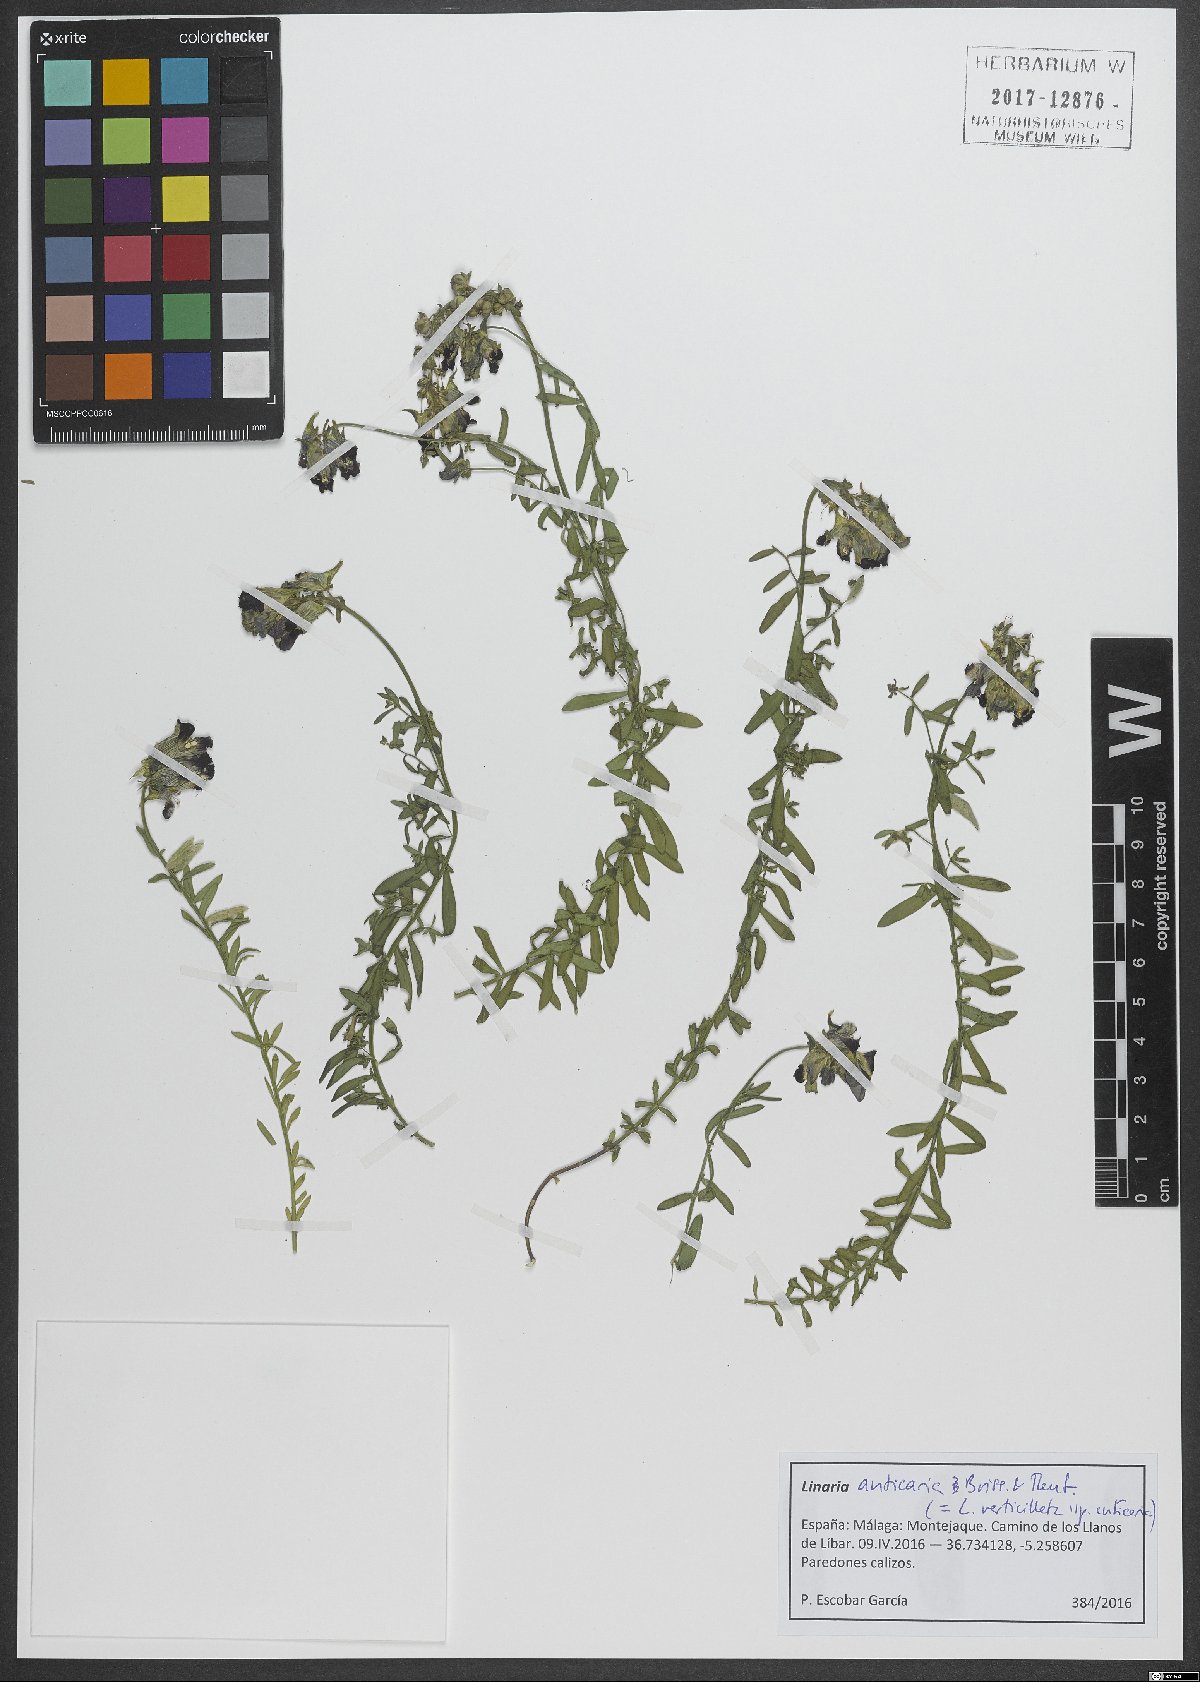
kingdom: Plantae
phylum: Tracheophyta
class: Magnoliopsida
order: Lamiales
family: Plantaginaceae
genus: Linaria
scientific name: Linaria verticillata
